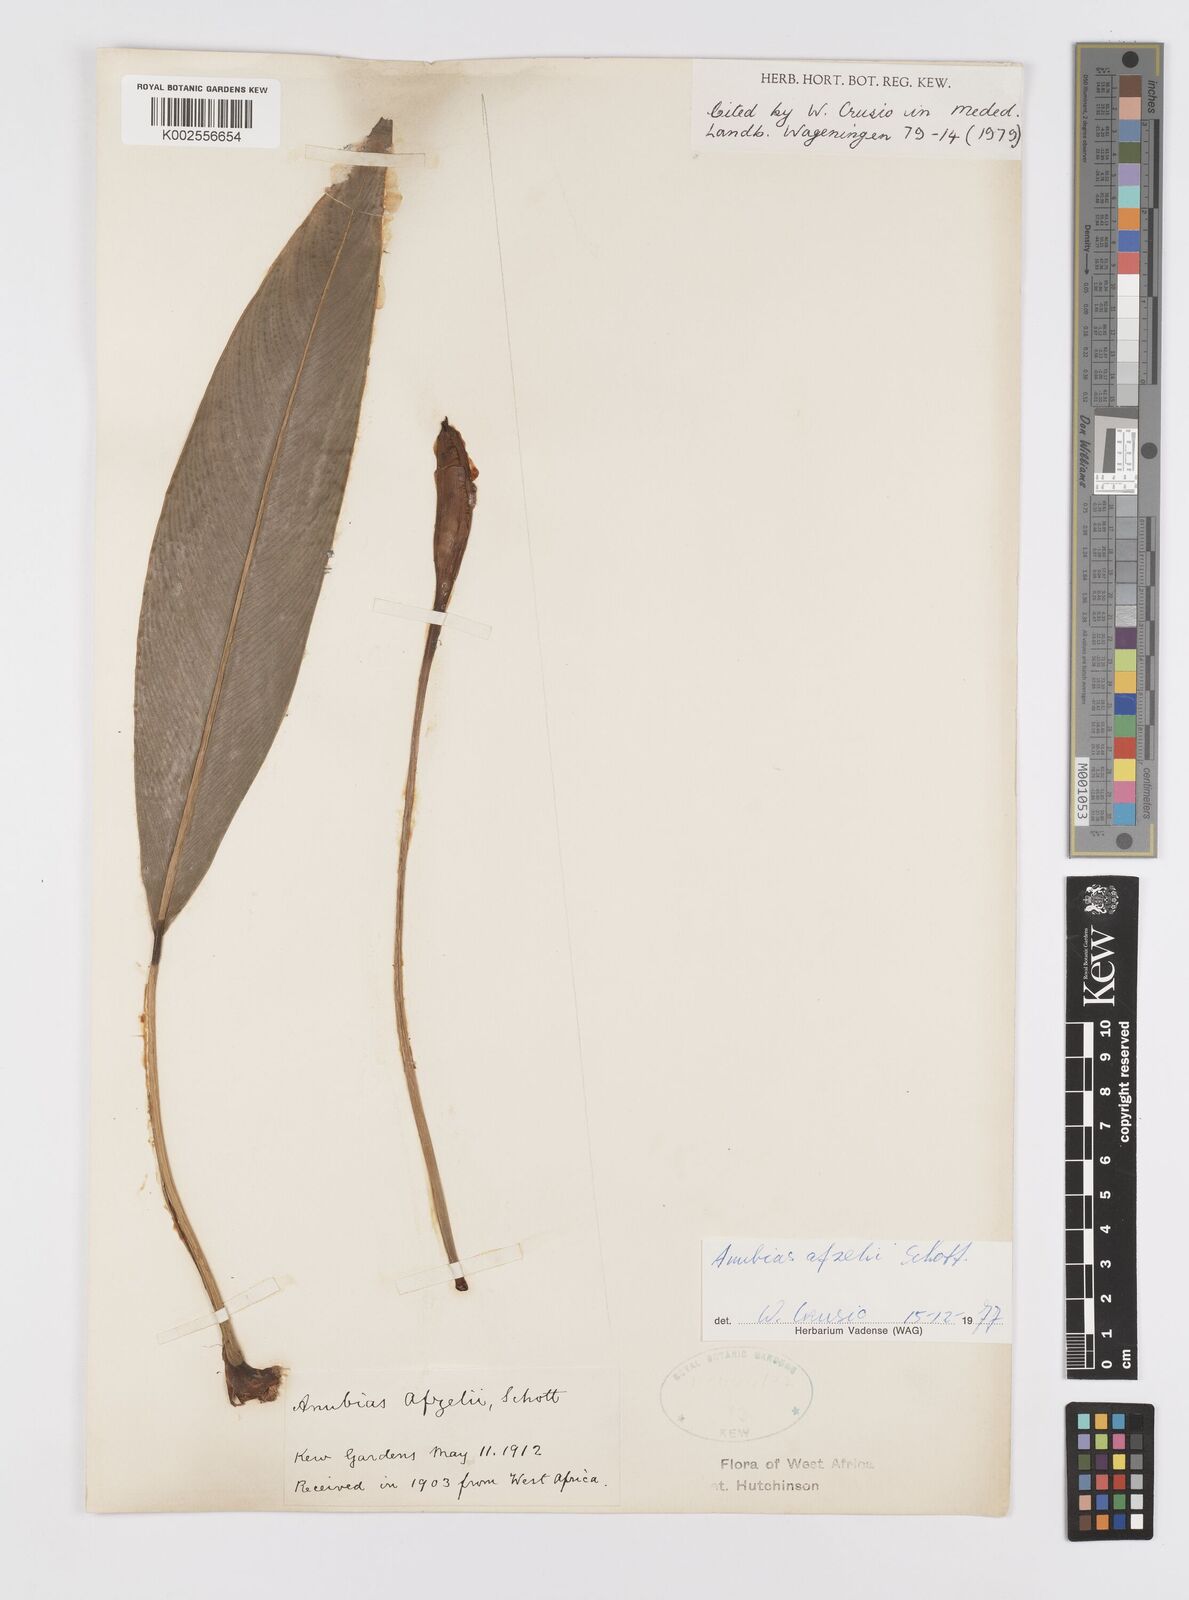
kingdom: Plantae
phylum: Tracheophyta
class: Liliopsida
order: Alismatales
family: Araceae
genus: Anubias
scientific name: Anubias afzelii
